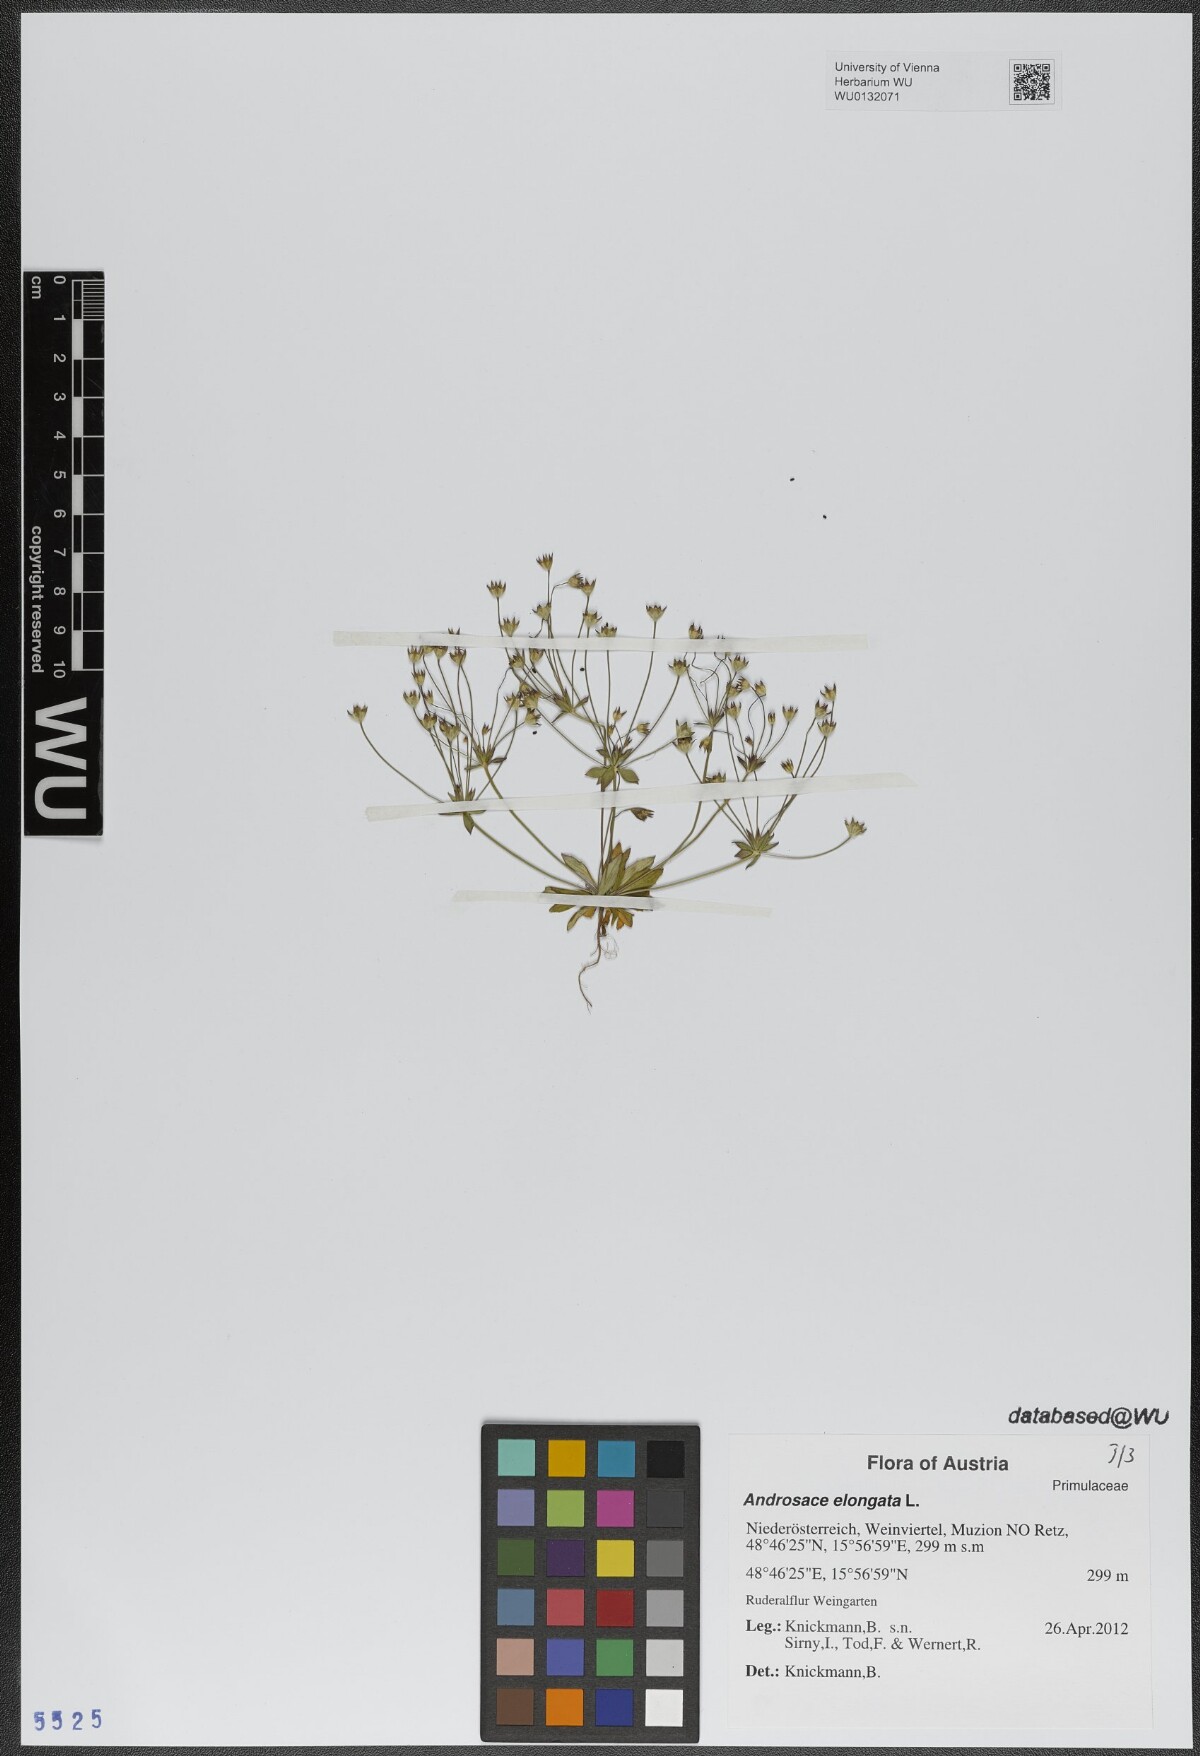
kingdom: Plantae
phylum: Tracheophyta
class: Magnoliopsida
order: Ericales
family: Primulaceae
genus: Androsace
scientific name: Androsace elongata
